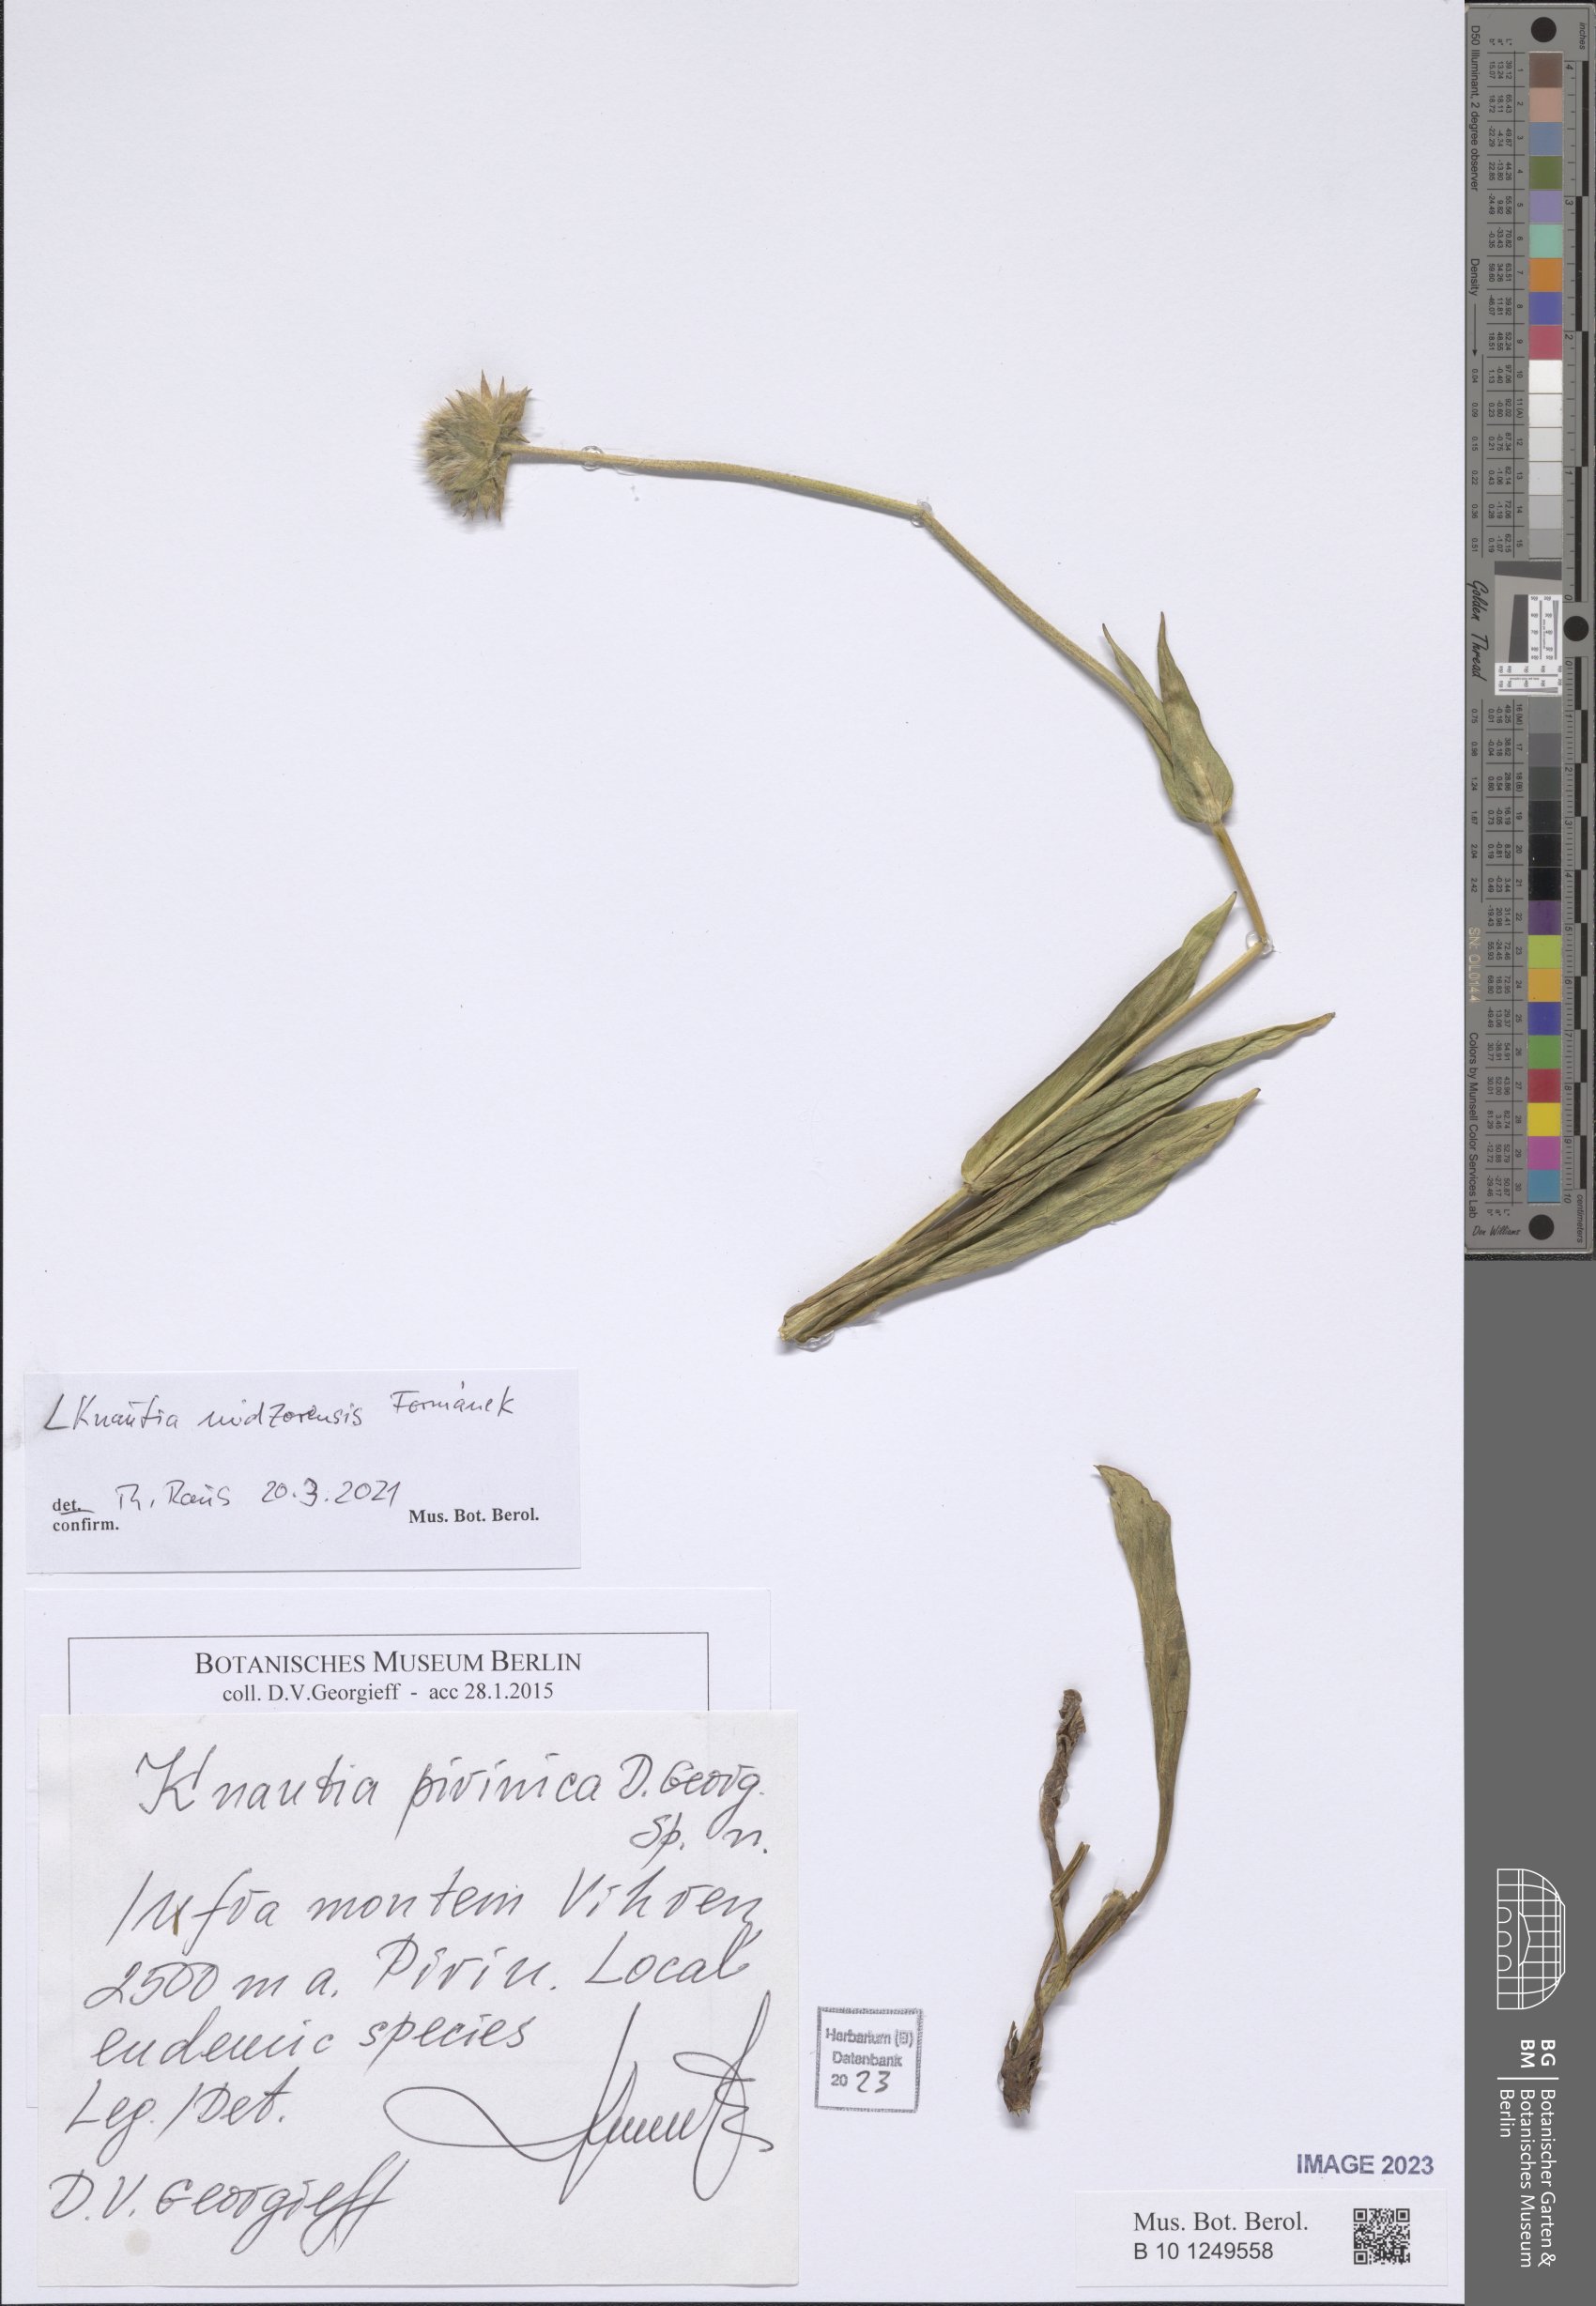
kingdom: Plantae
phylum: Tracheophyta
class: Magnoliopsida
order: Dipsacales
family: Caprifoliaceae
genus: Knautia
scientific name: Knautia midzorensis
